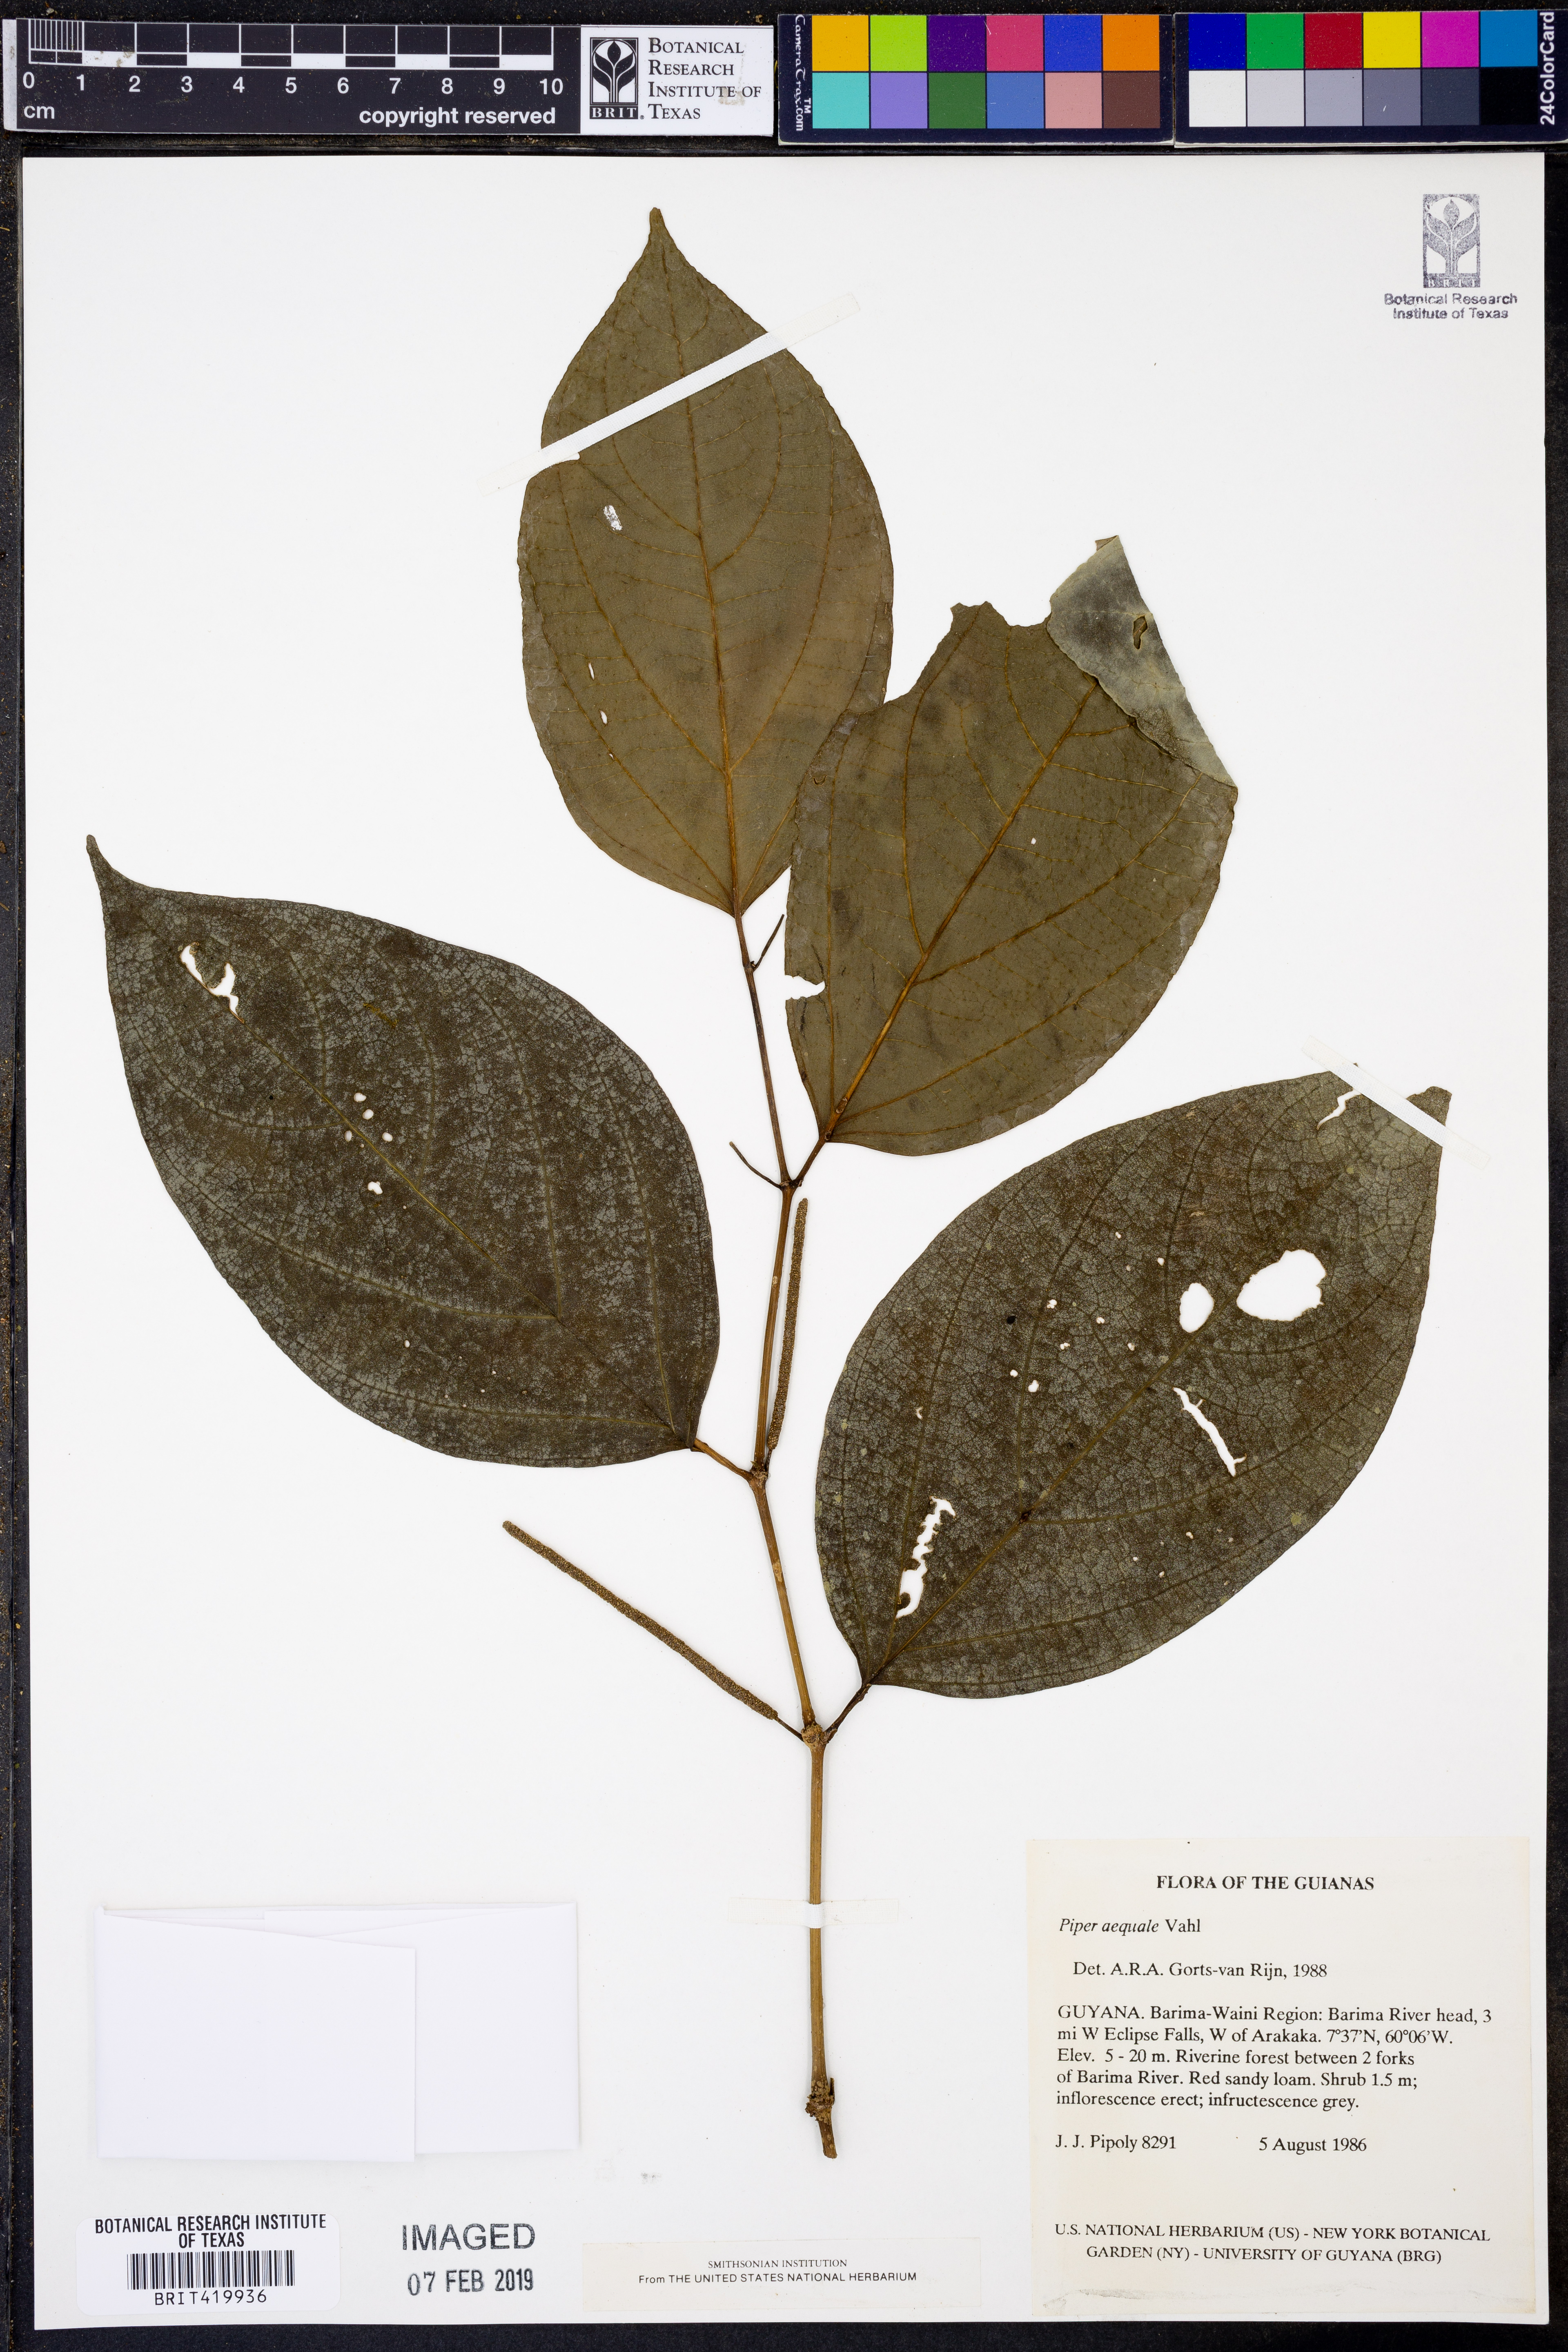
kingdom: Plantae
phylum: Tracheophyta
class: Magnoliopsida
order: Piperales
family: Piperaceae
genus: Piper
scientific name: Piper aequale
